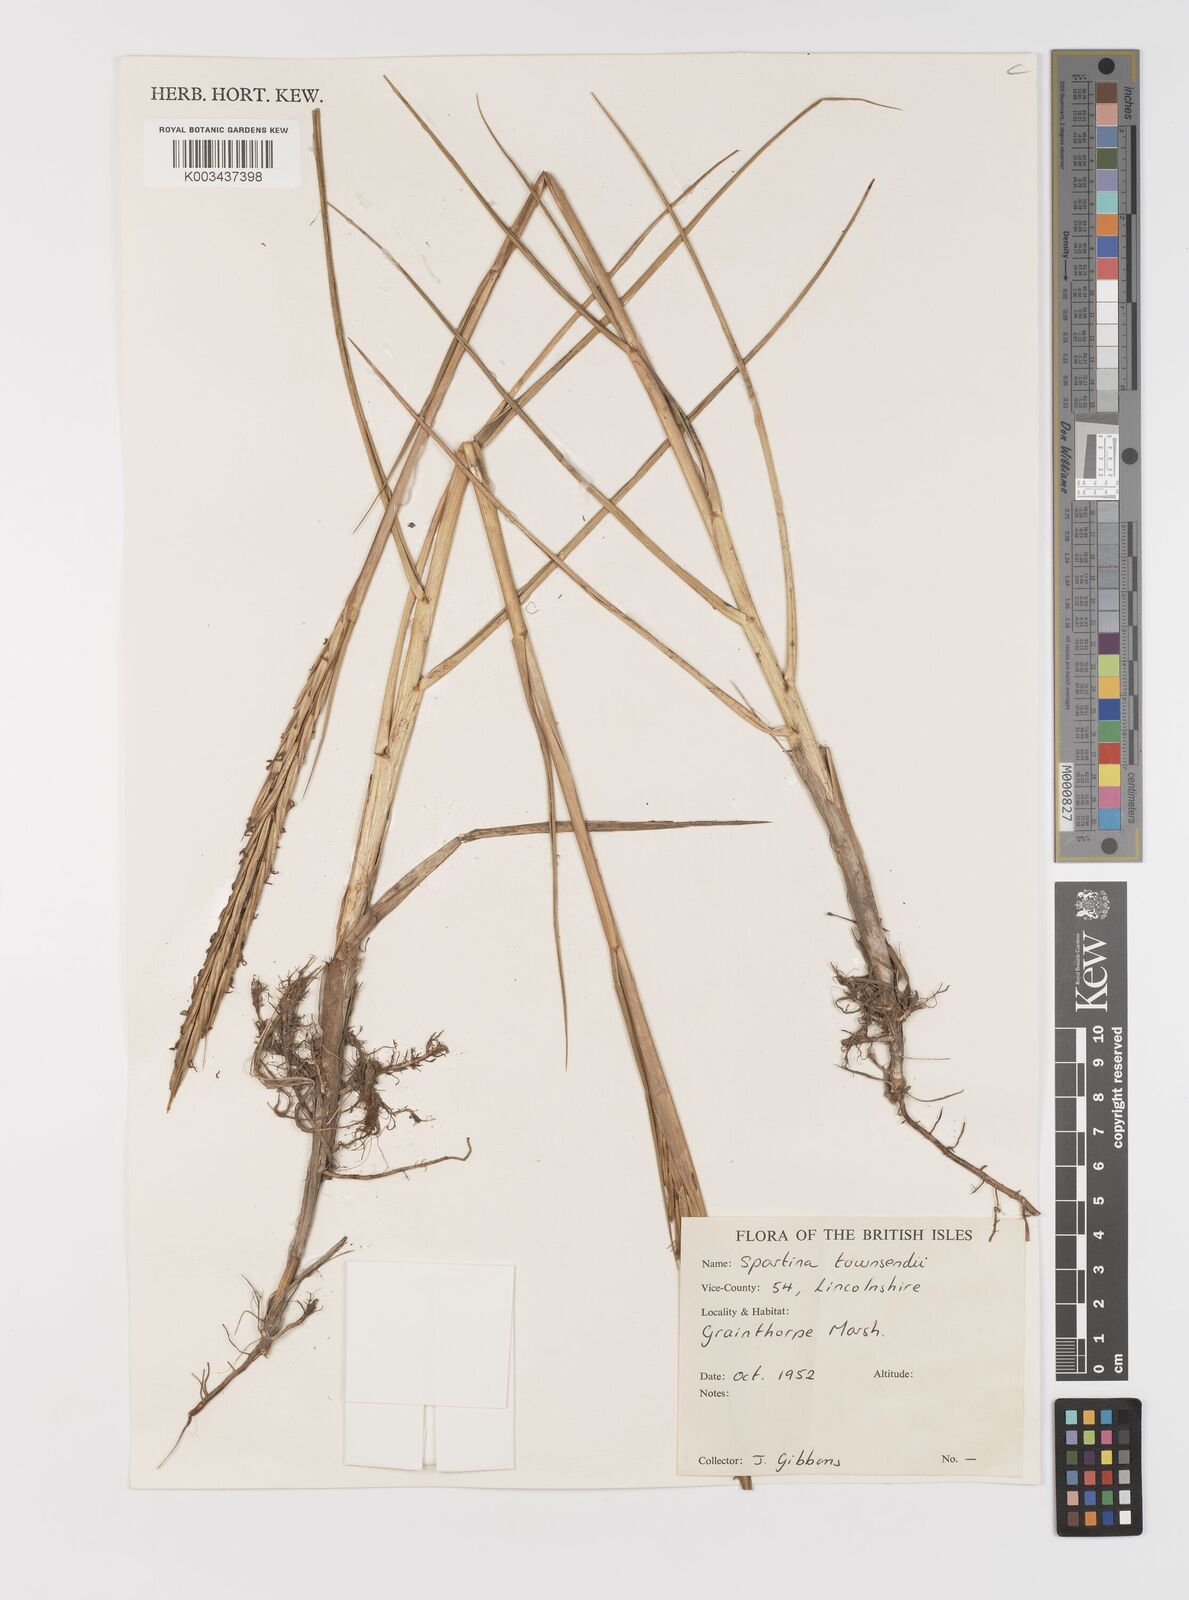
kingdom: Plantae
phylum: Tracheophyta
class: Liliopsida
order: Poales
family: Poaceae
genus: Sporobolus
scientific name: Sporobolus townsendii
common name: Townsend's cordgrass
